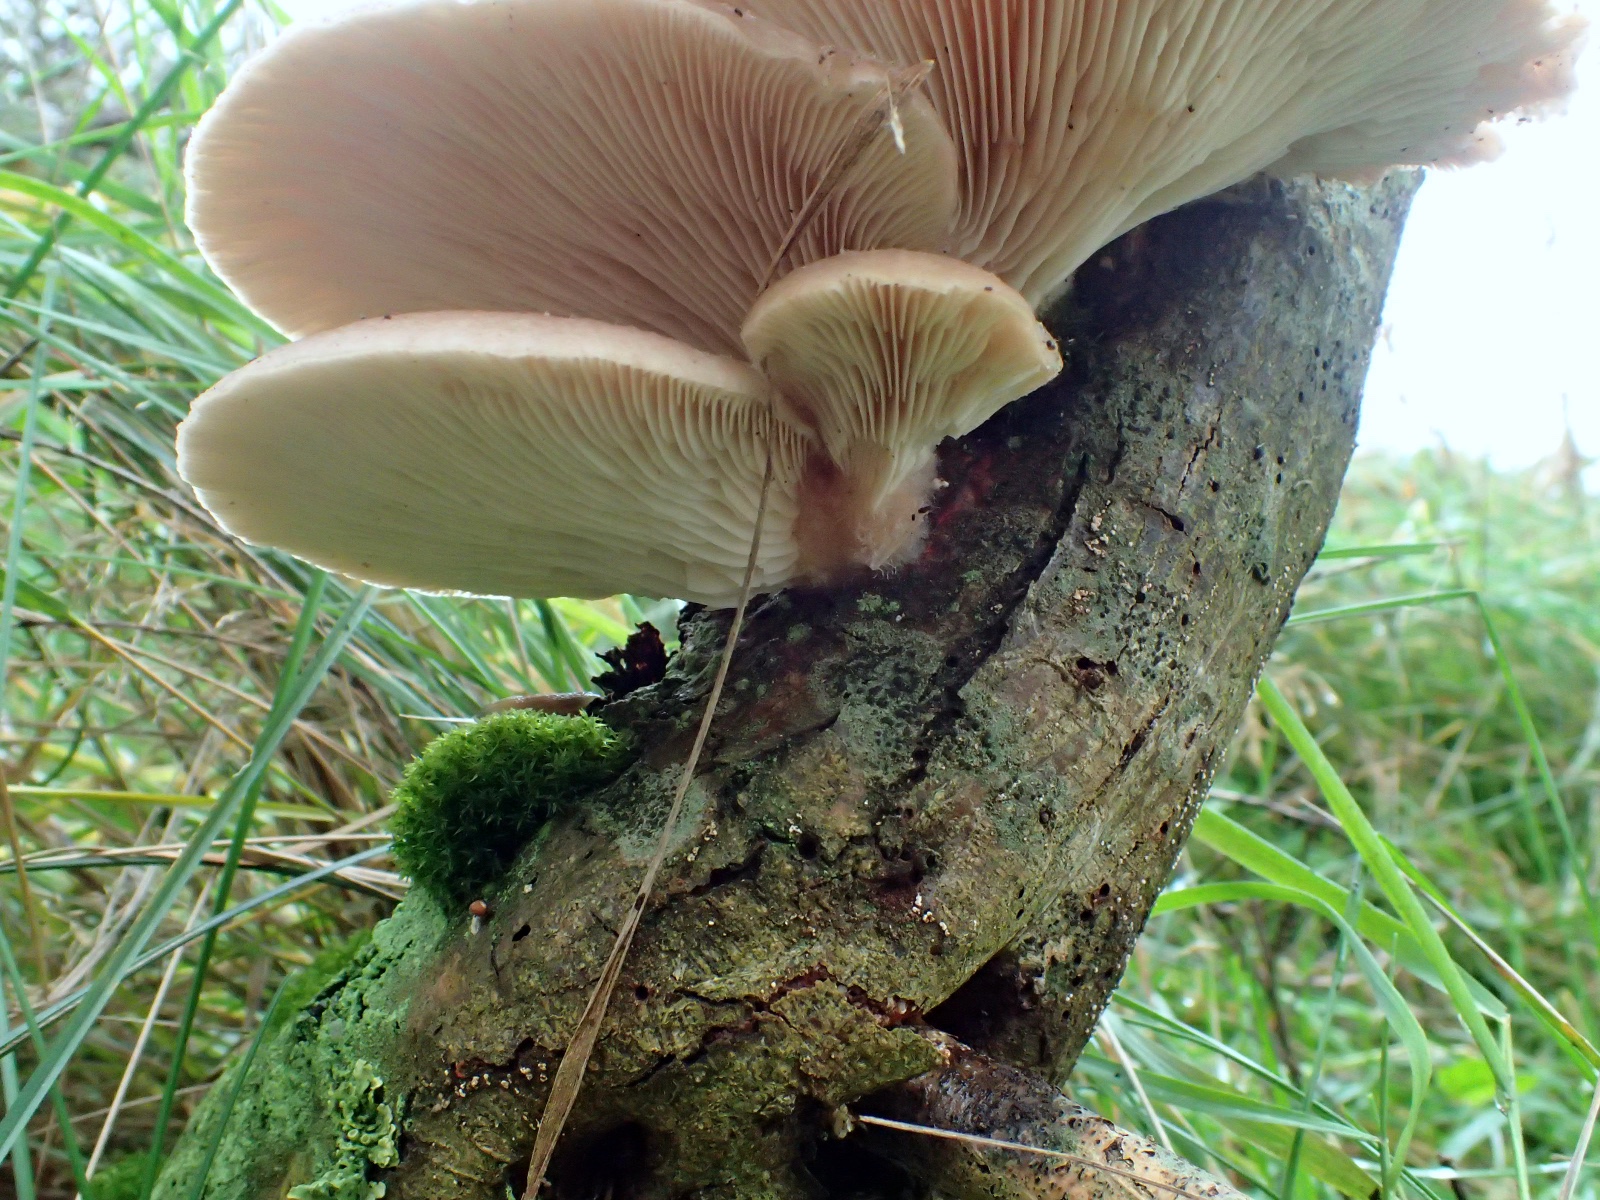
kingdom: Fungi
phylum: Basidiomycota
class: Agaricomycetes
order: Agaricales
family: Pleurotaceae
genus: Pleurotus
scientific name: Pleurotus
